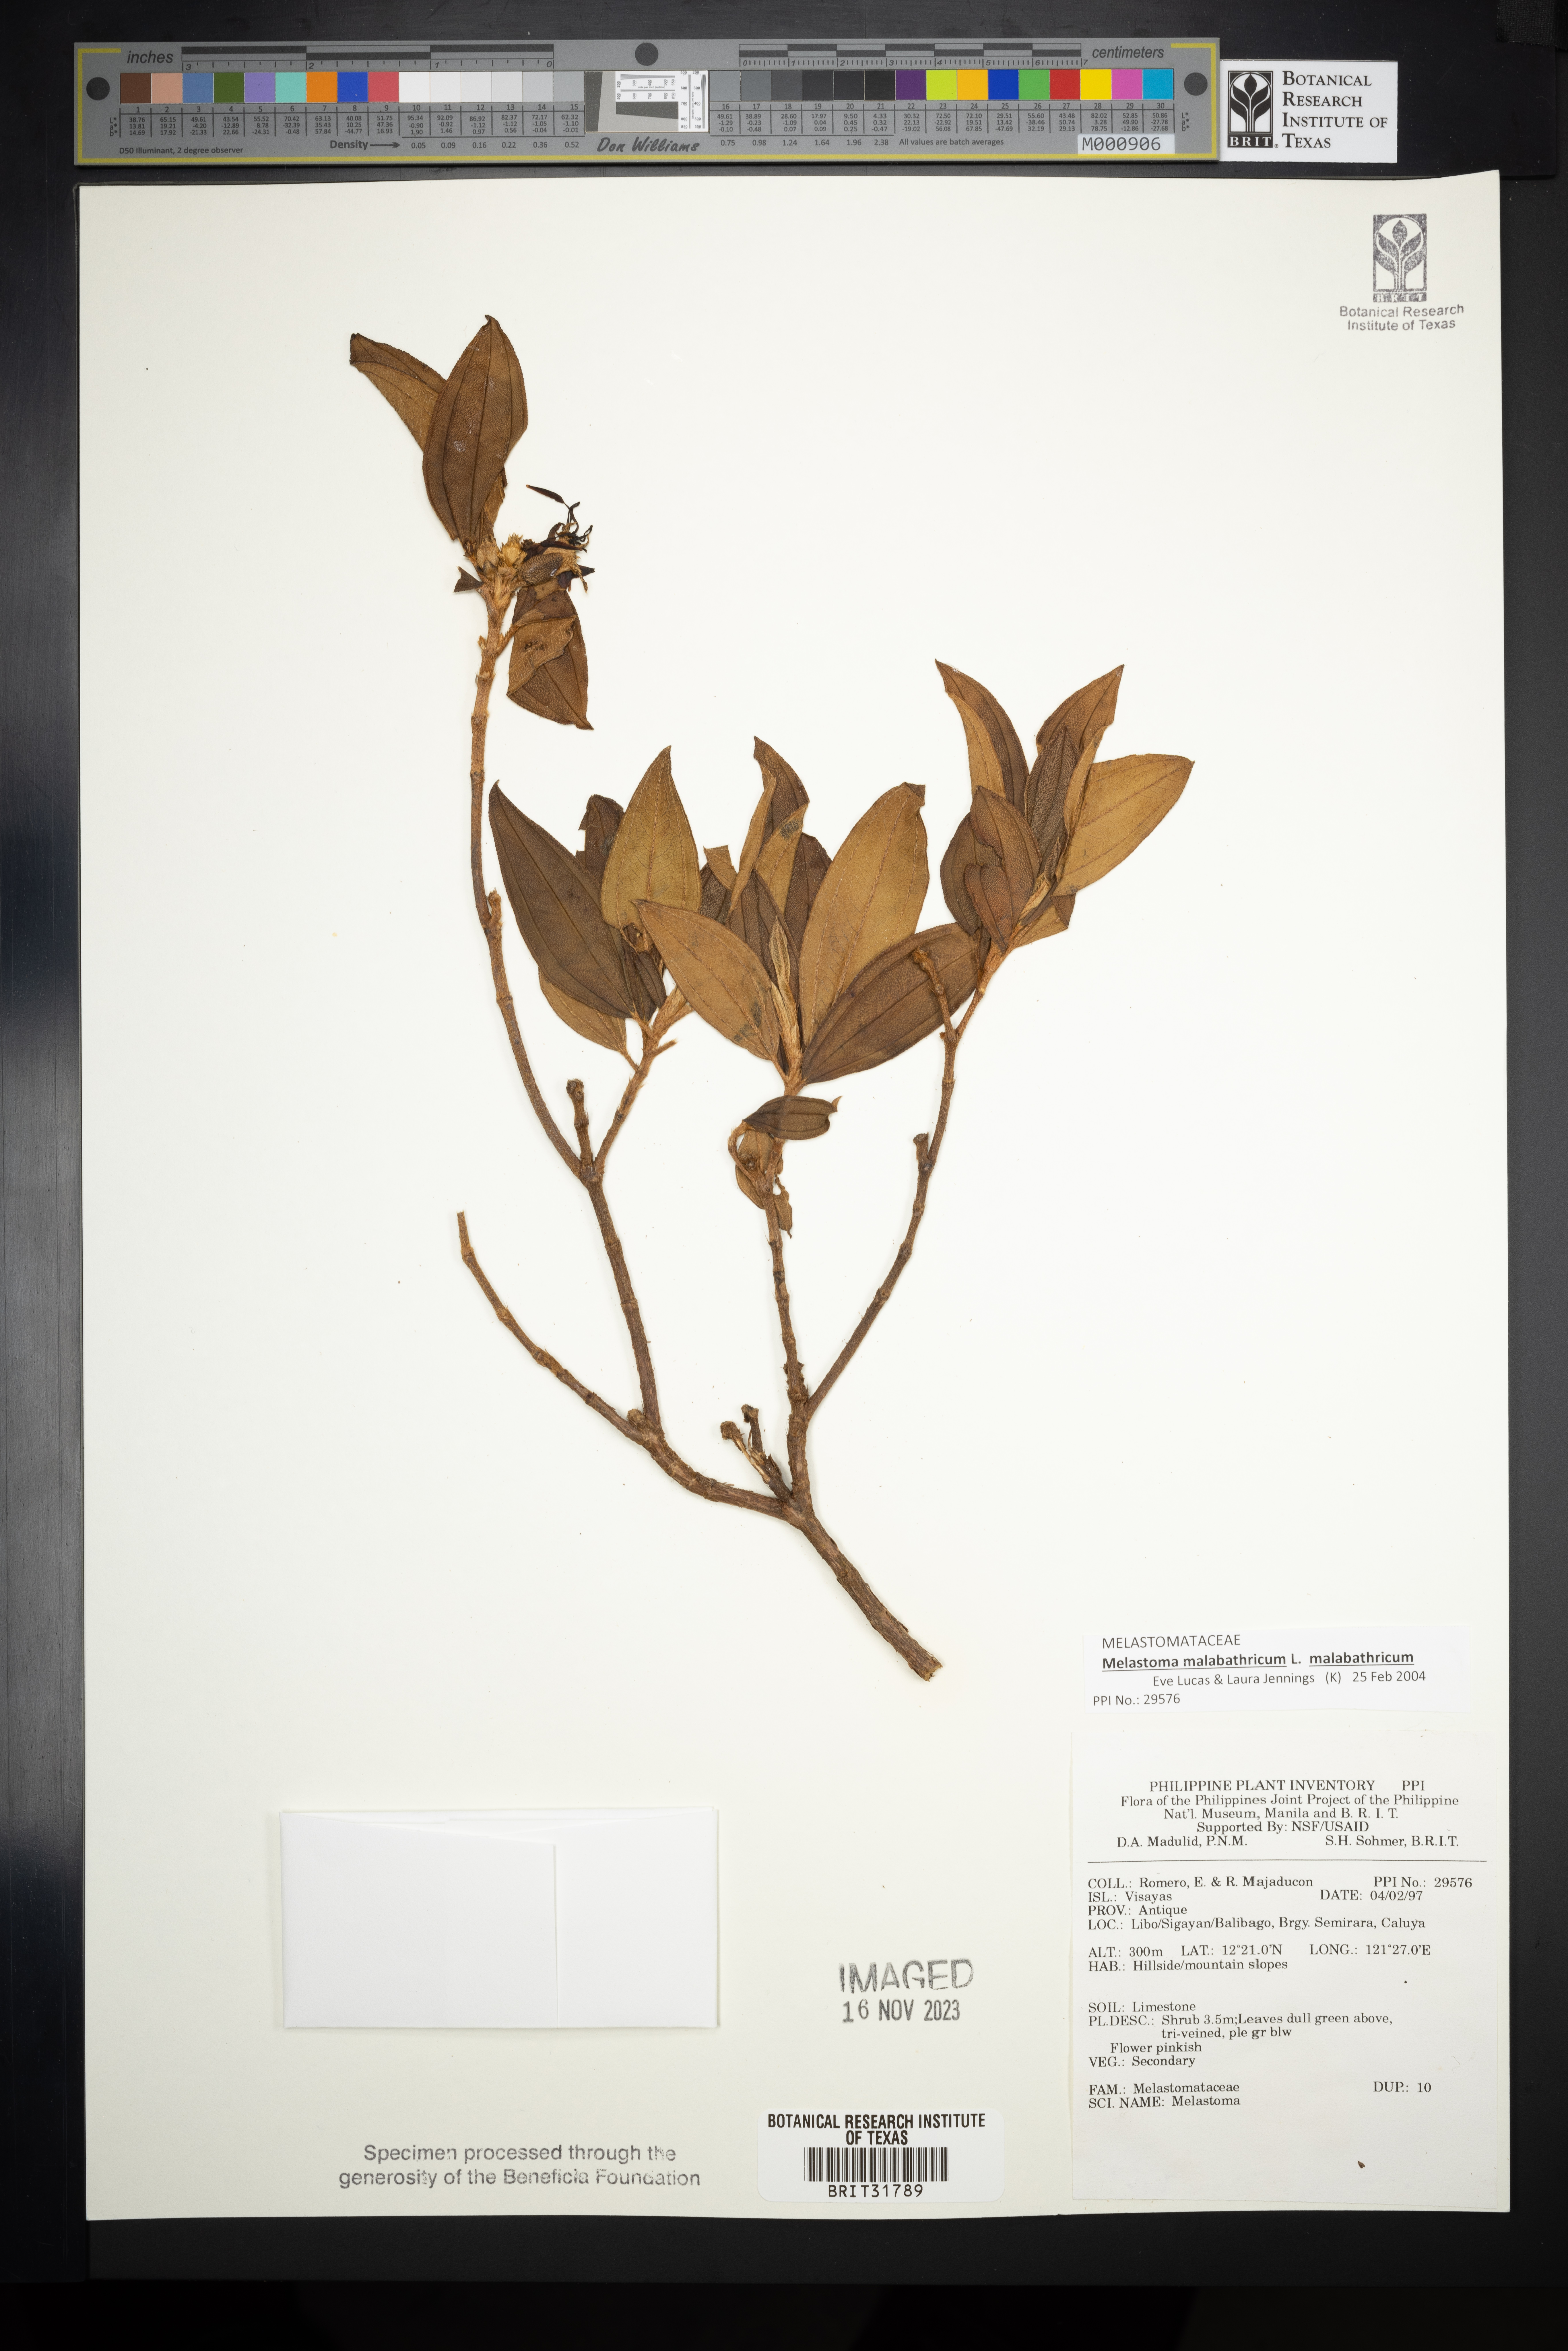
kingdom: Plantae
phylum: Tracheophyta
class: Magnoliopsida
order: Myrtales
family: Melastomataceae
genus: Melastoma
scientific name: Melastoma
